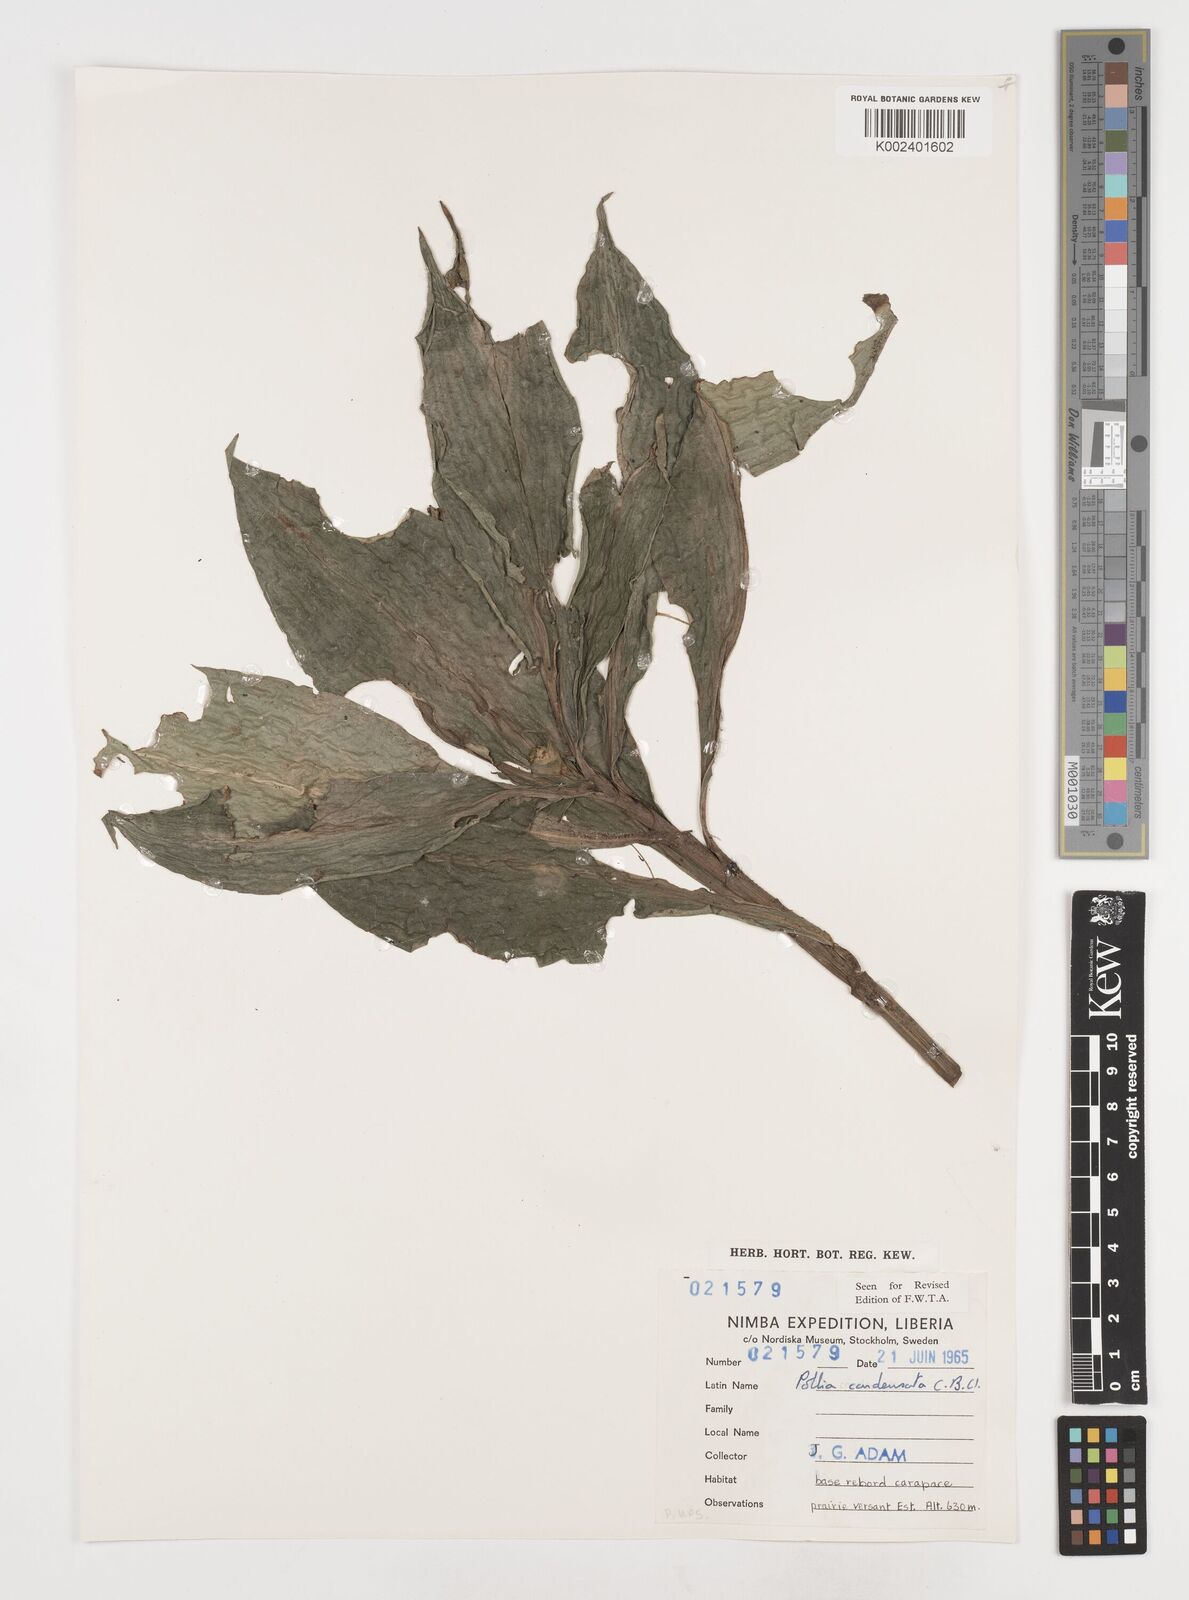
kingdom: Plantae
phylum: Tracheophyta
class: Liliopsida
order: Commelinales
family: Commelinaceae
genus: Pollia
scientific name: Pollia condensata
